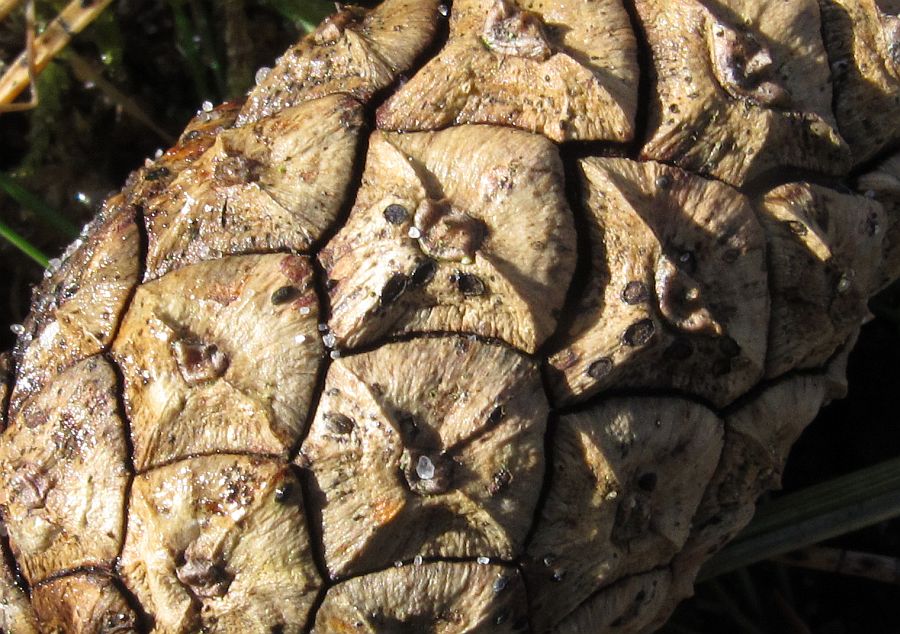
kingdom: Fungi
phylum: Ascomycota
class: Leotiomycetes
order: Micraspidales
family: Micraspidaceae
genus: Micraspis
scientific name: Micraspis strobilina
